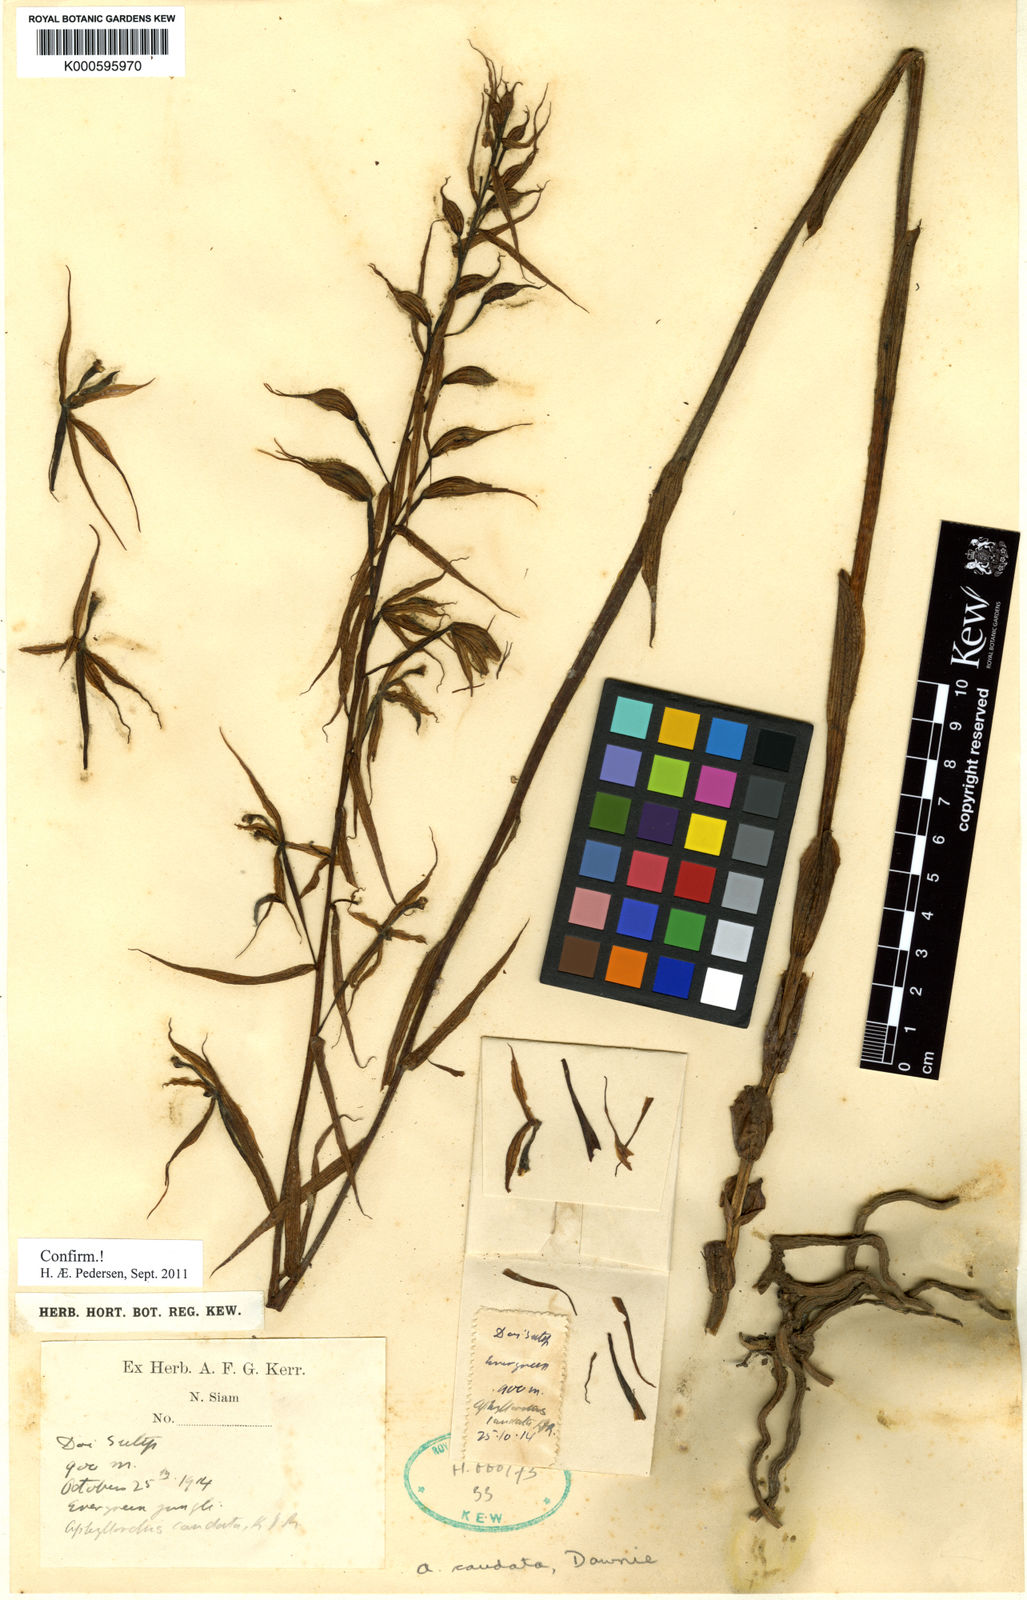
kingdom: Plantae
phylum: Tracheophyta
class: Liliopsida
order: Asparagales
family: Orchidaceae
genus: Aphyllorchis
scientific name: Aphyllorchis caudata
